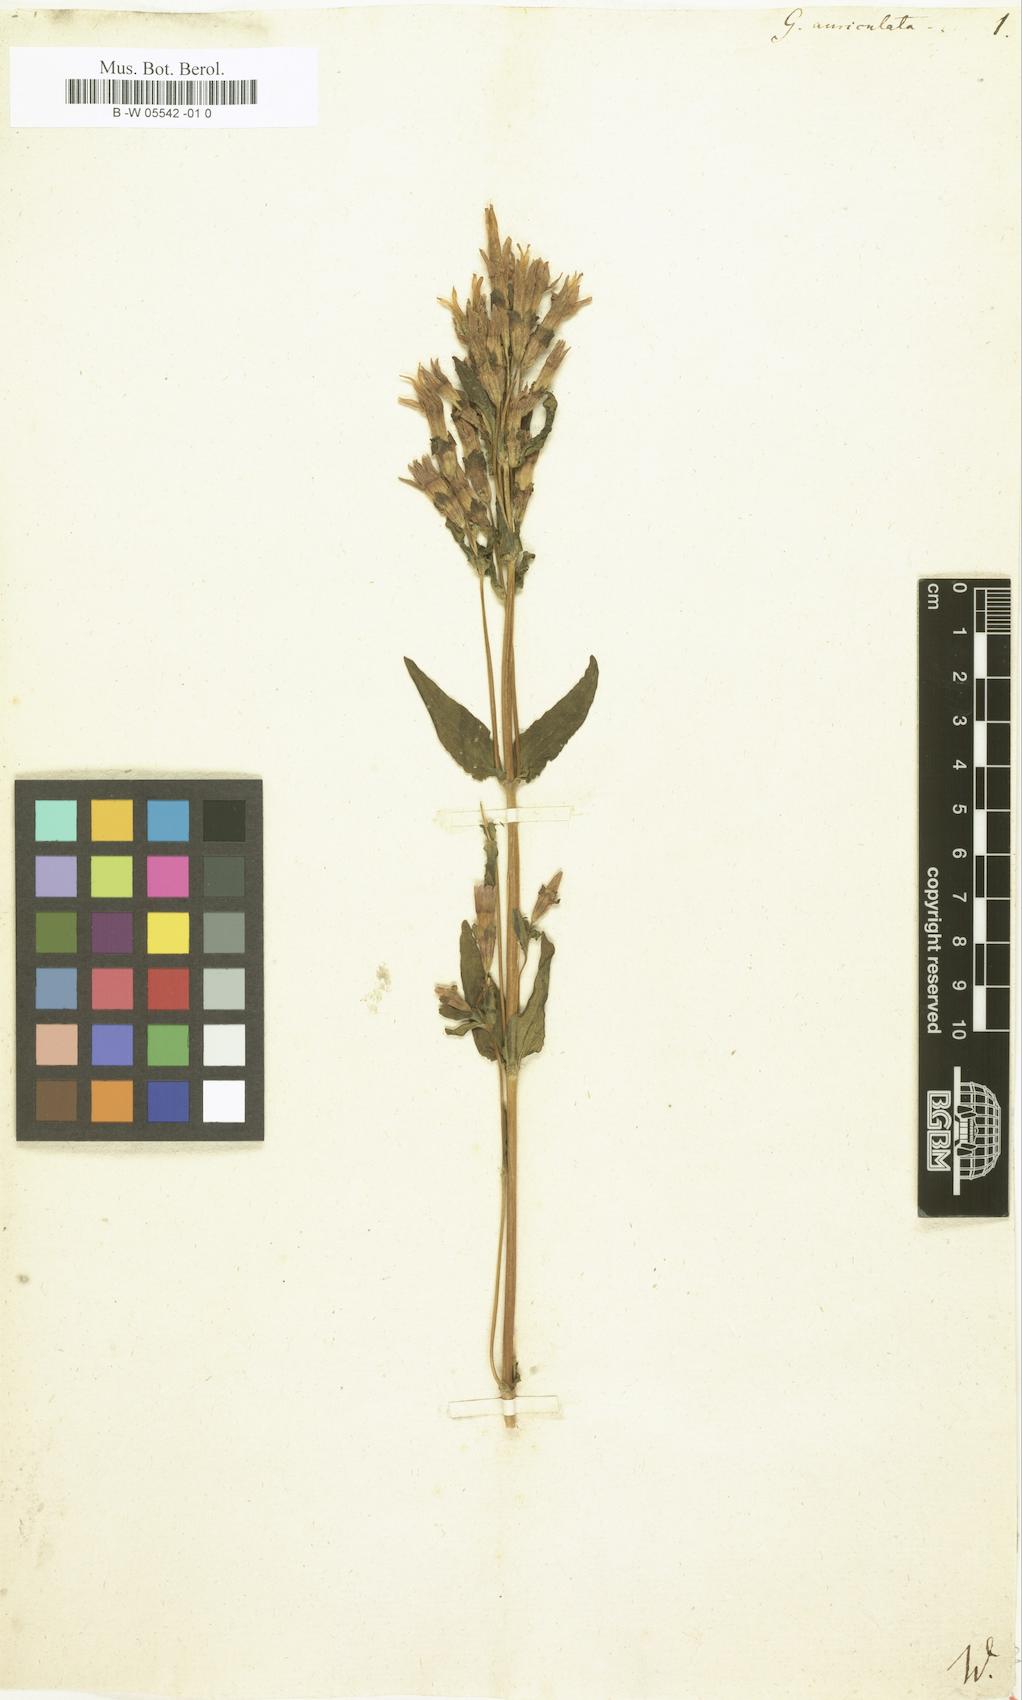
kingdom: Plantae
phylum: Tracheophyta
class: Magnoliopsida
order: Gentianales
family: Gentianaceae
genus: Gentianella
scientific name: Gentianella auriculata
